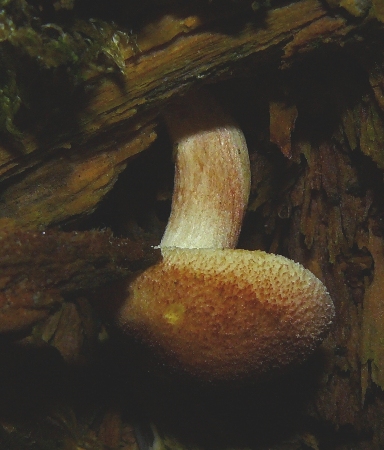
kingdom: Fungi
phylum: Basidiomycota
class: Agaricomycetes
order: Agaricales
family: Tricholomataceae
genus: Tricholomopsis
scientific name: Tricholomopsis rutilans
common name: purpur-væbnerhat
